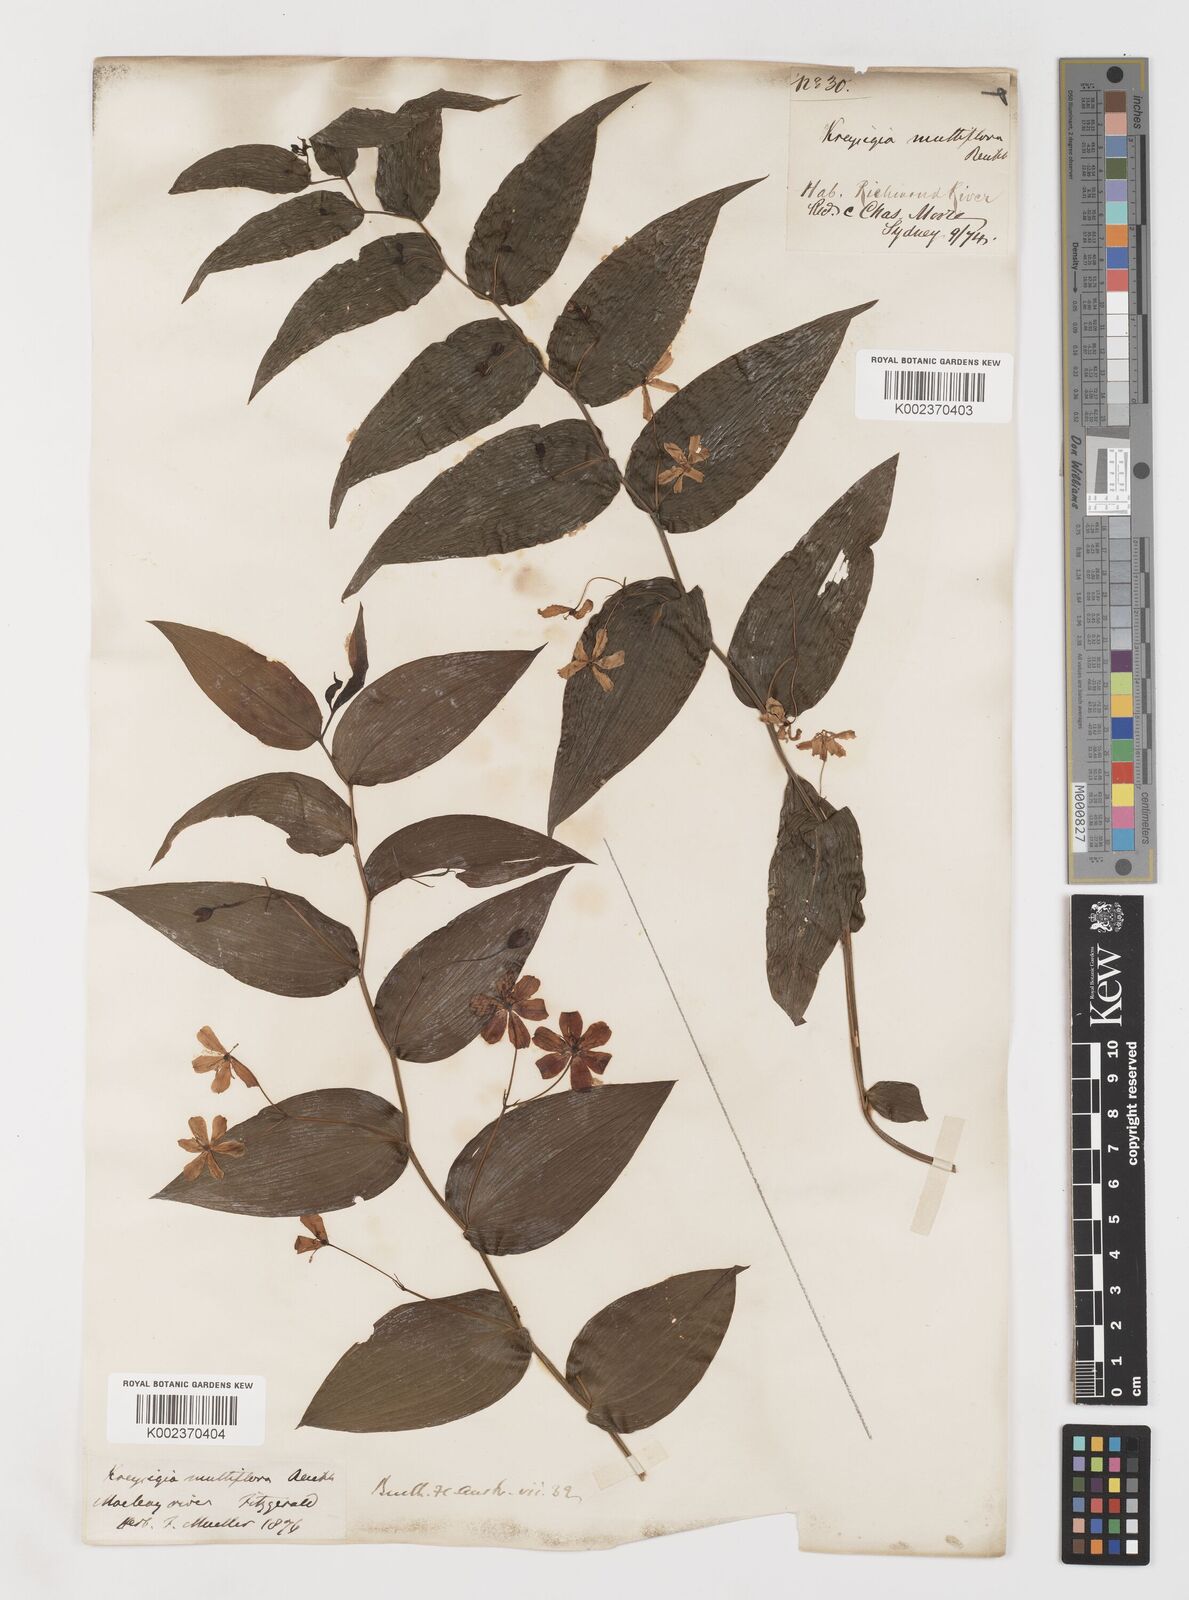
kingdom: Plantae
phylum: Tracheophyta
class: Liliopsida
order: Liliales
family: Colchicaceae
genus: Tripladenia
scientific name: Tripladenia
